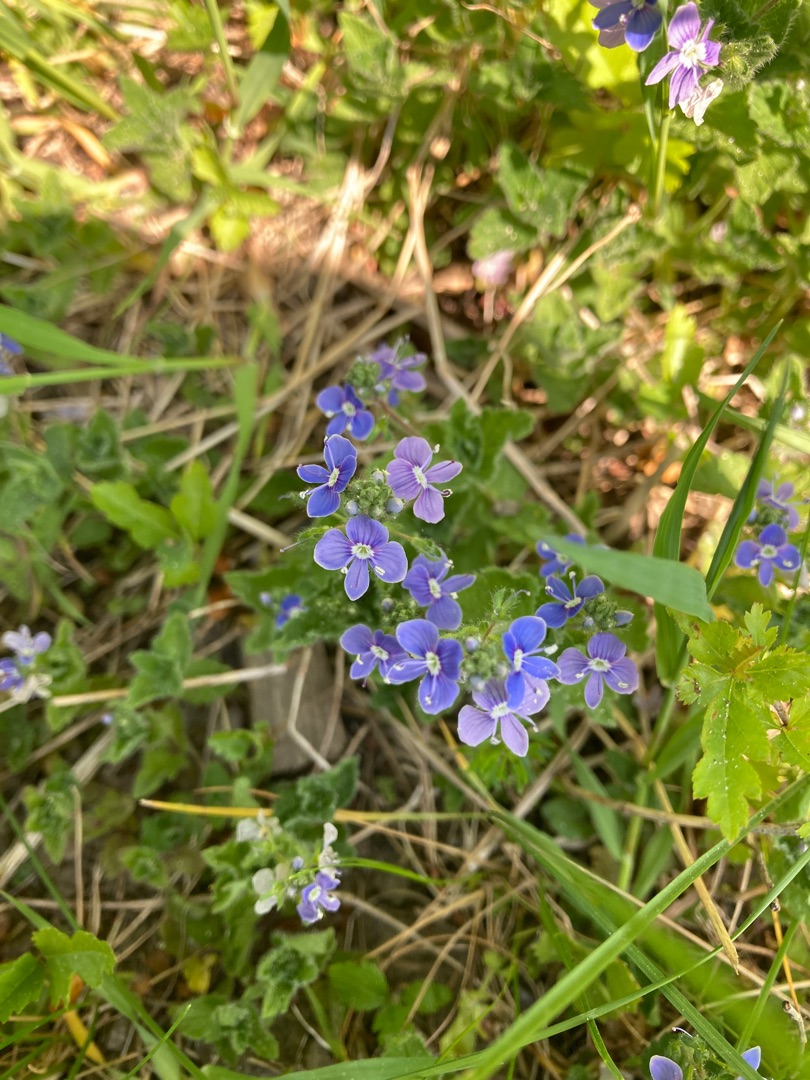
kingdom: Plantae
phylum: Tracheophyta
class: Magnoliopsida
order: Lamiales
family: Plantaginaceae
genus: Veronica
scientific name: Veronica chamaedrys
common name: Tveskægget ærenpris
